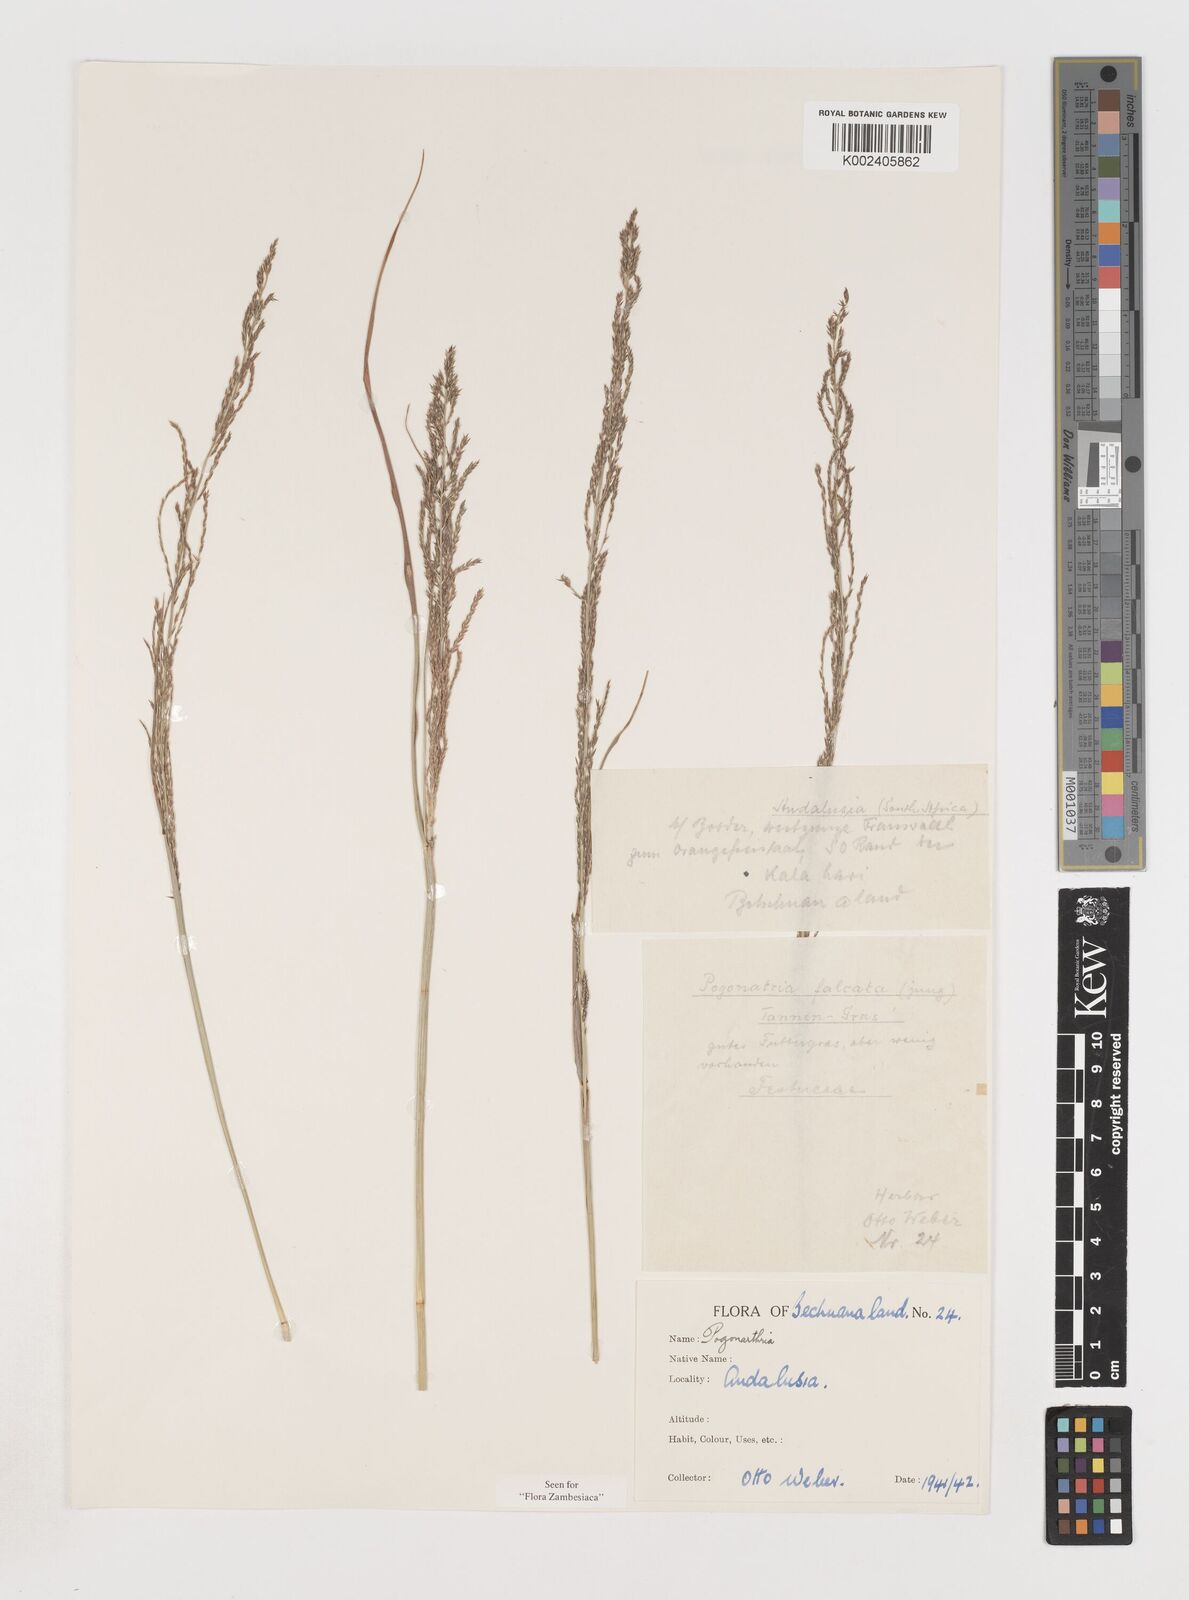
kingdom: Plantae
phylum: Tracheophyta
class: Liliopsida
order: Poales
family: Poaceae
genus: Pogonarthria
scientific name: Pogonarthria fleckii
